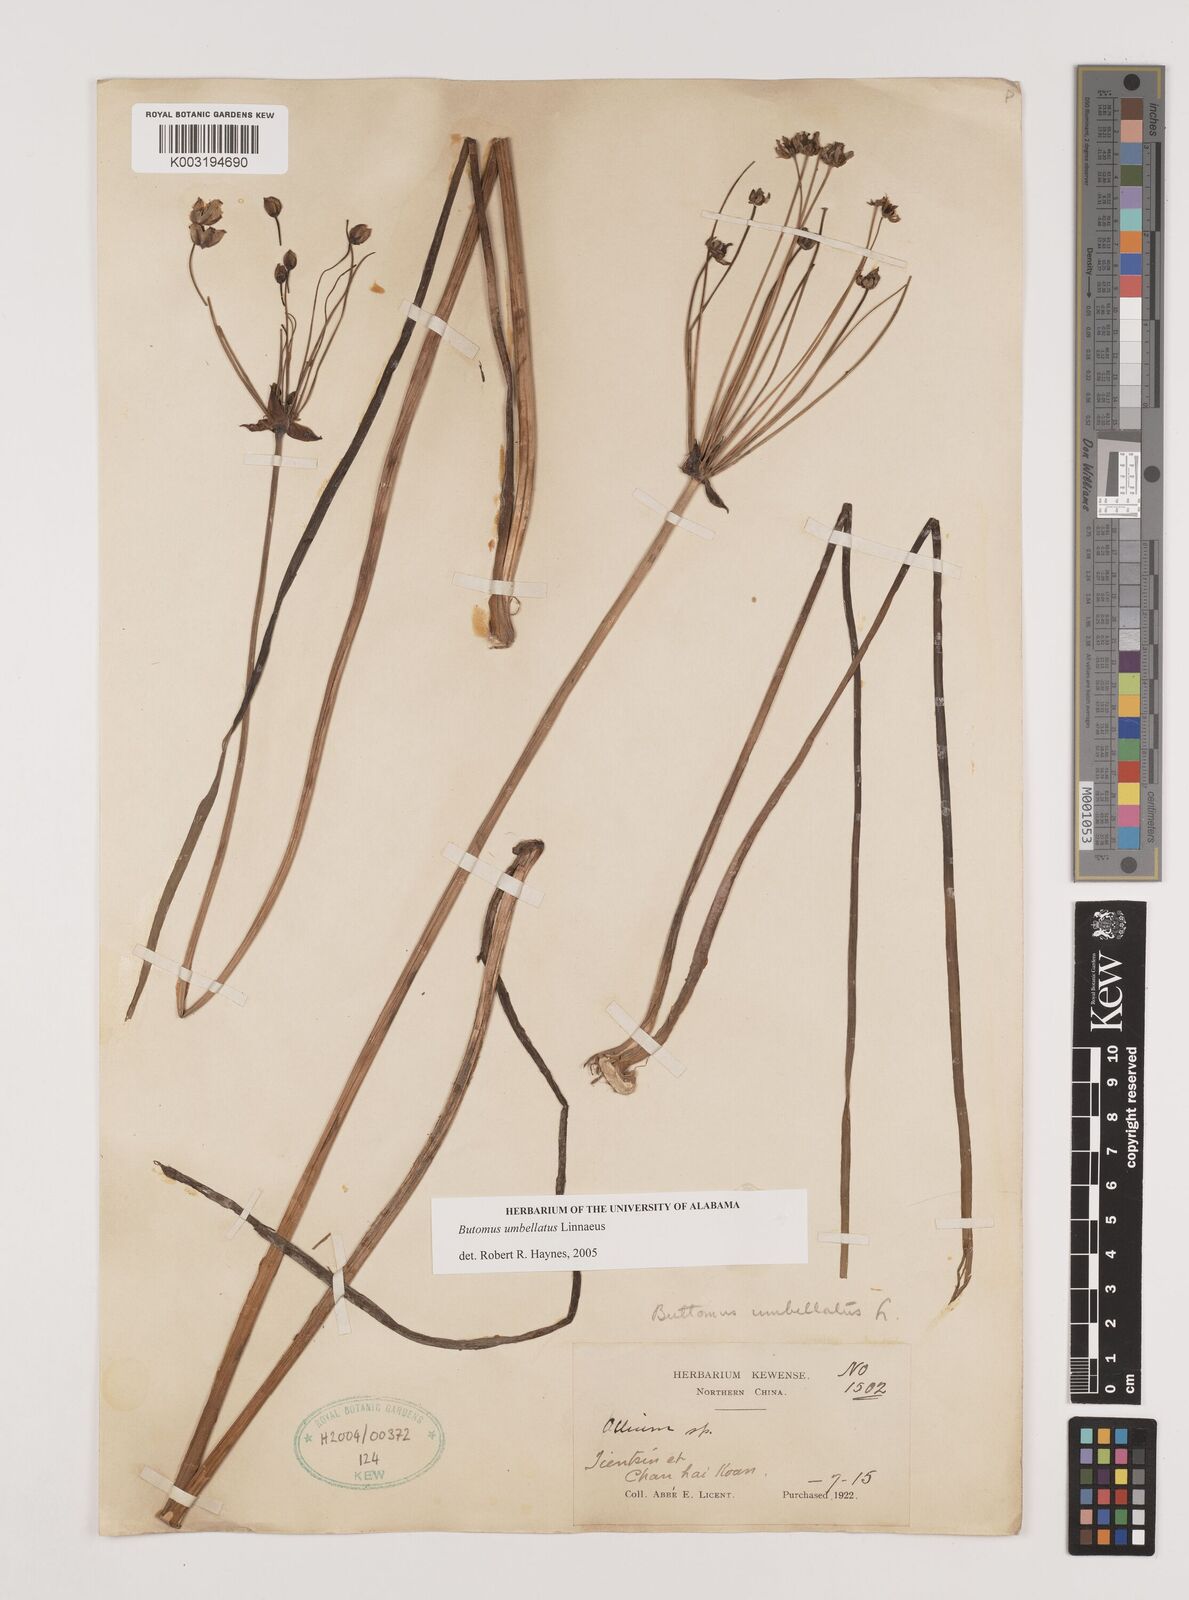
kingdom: Plantae
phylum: Tracheophyta
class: Liliopsida
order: Alismatales
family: Butomaceae
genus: Butomus
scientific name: Butomus umbellatus
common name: Flowering-rush
